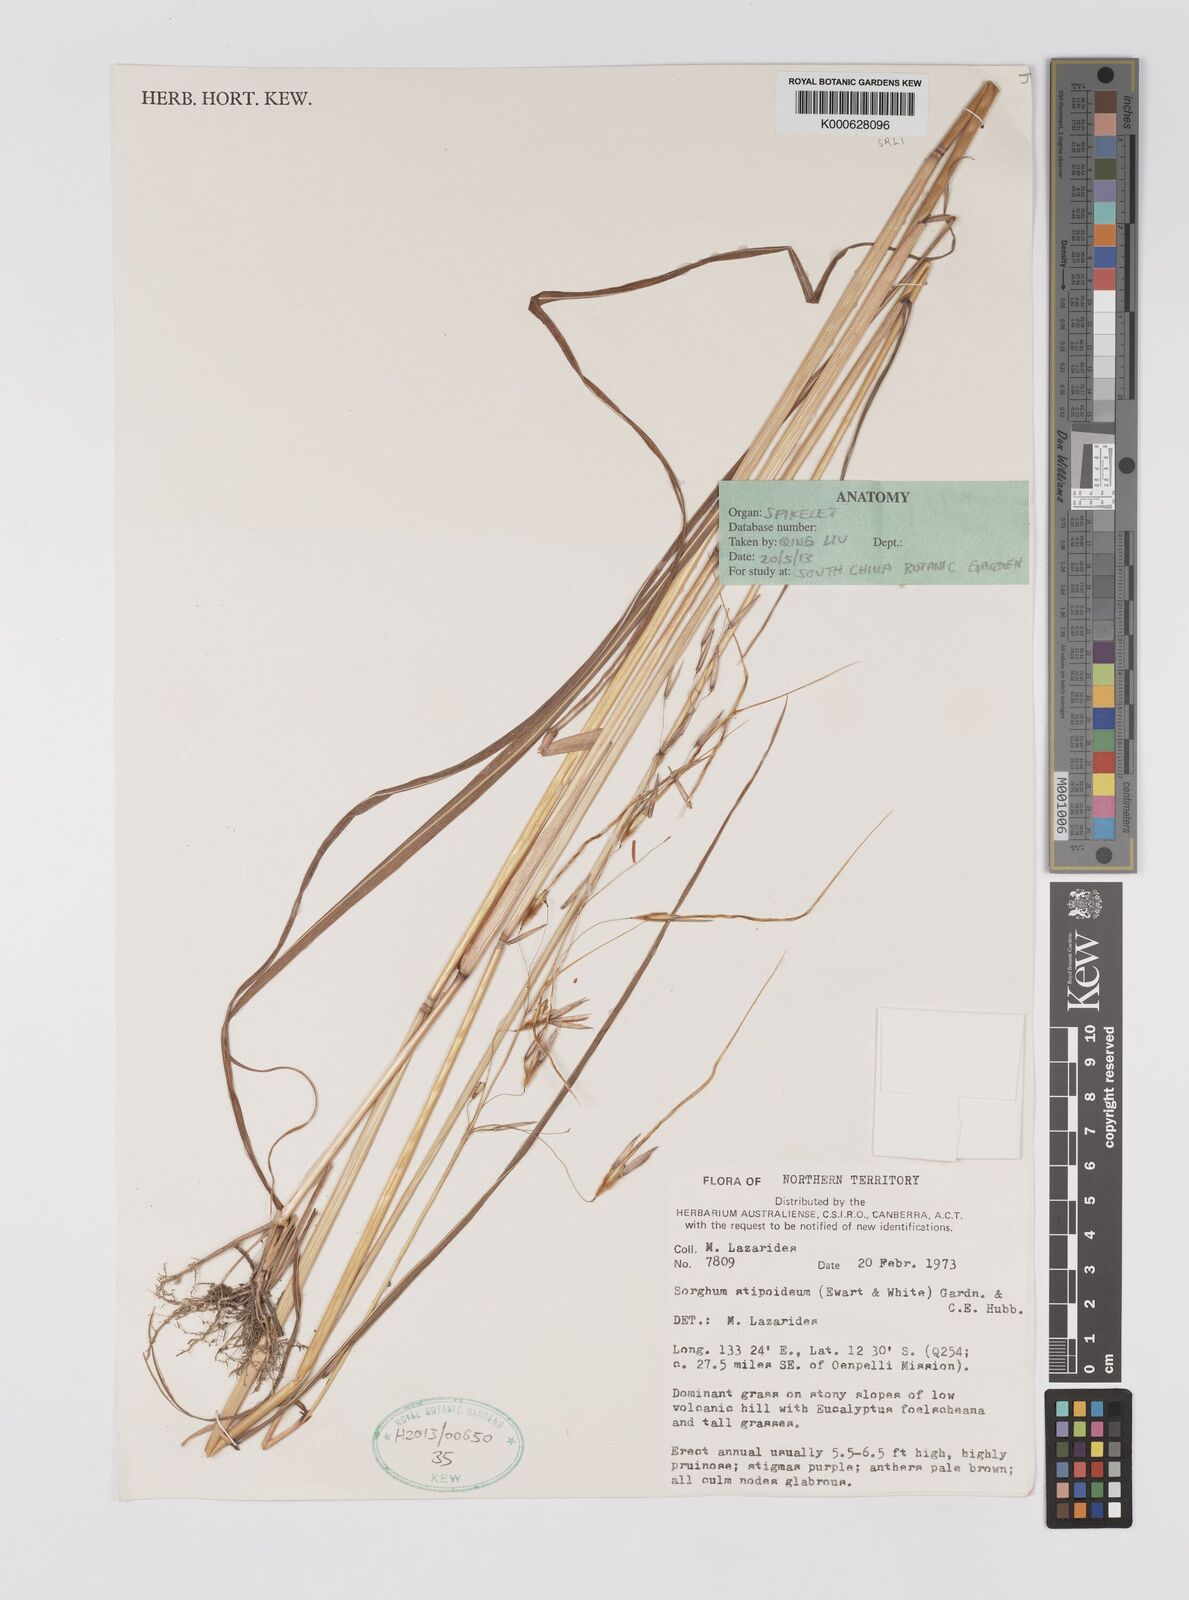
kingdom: Plantae
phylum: Tracheophyta
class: Liliopsida
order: Poales
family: Poaceae
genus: Sarga
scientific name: Sarga stipoidea
